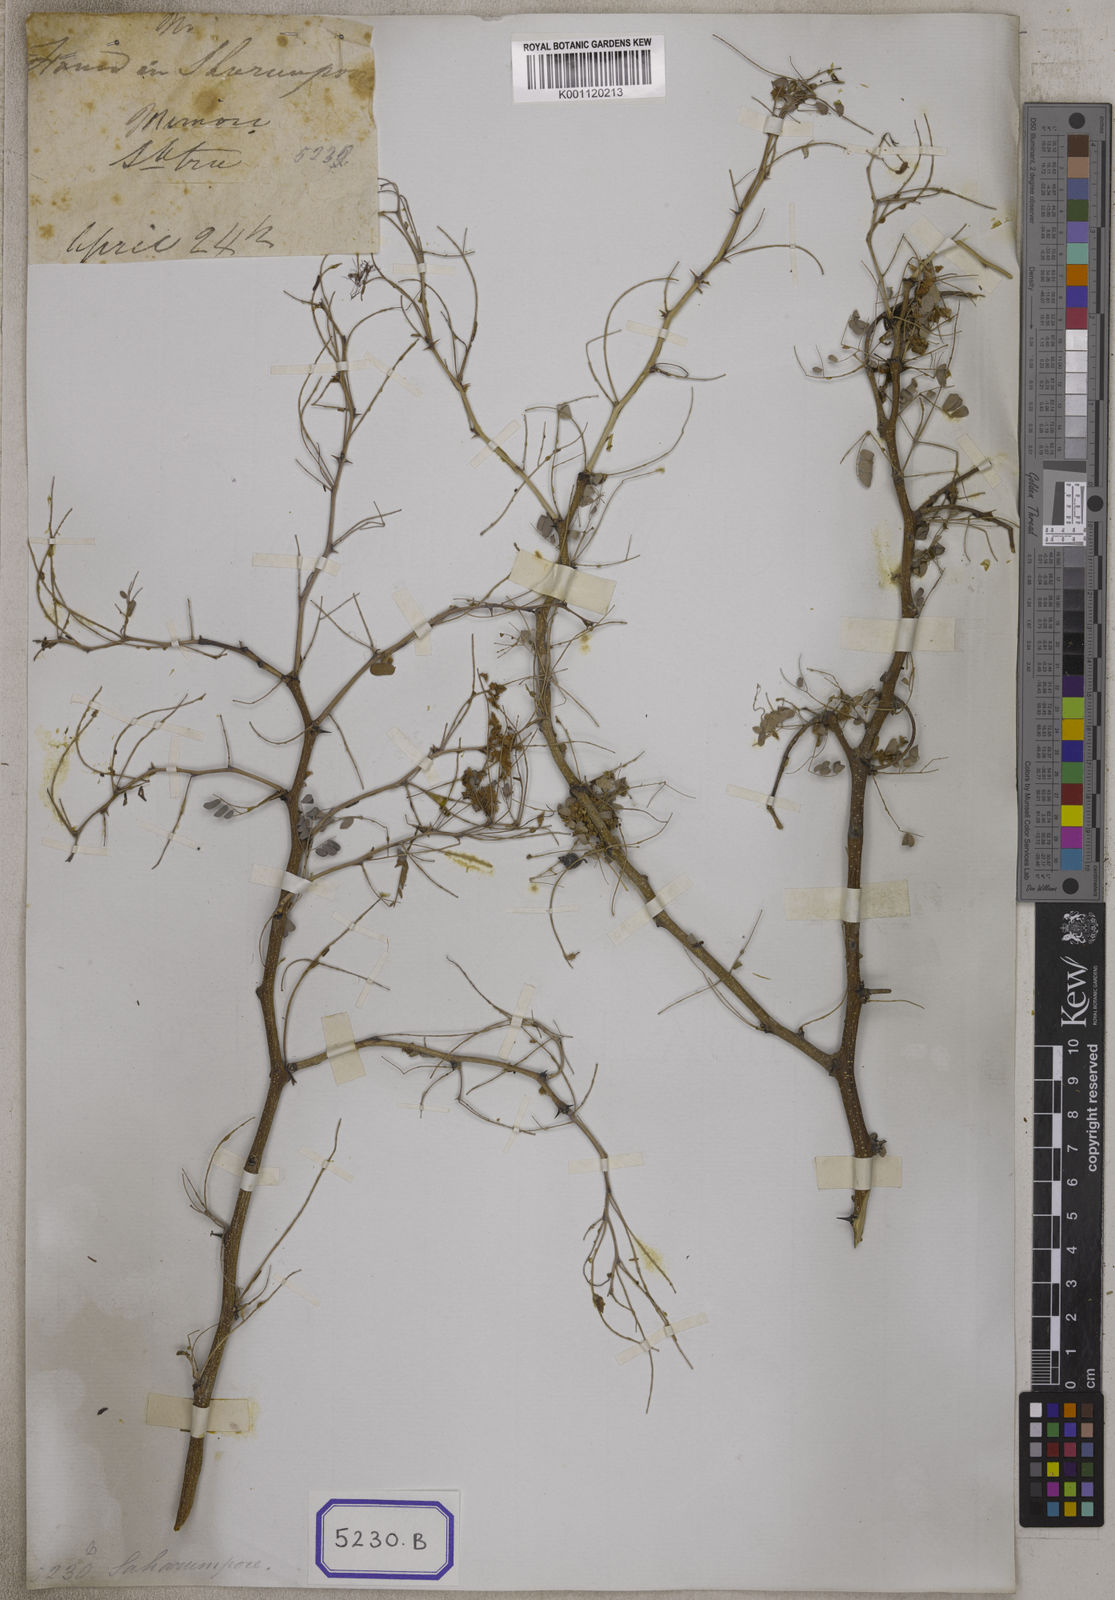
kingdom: Plantae
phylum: Tracheophyta
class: Magnoliopsida
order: Fabales
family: Fabaceae
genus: Senegalia
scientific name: Senegalia modesta
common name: Amritsar-gum
